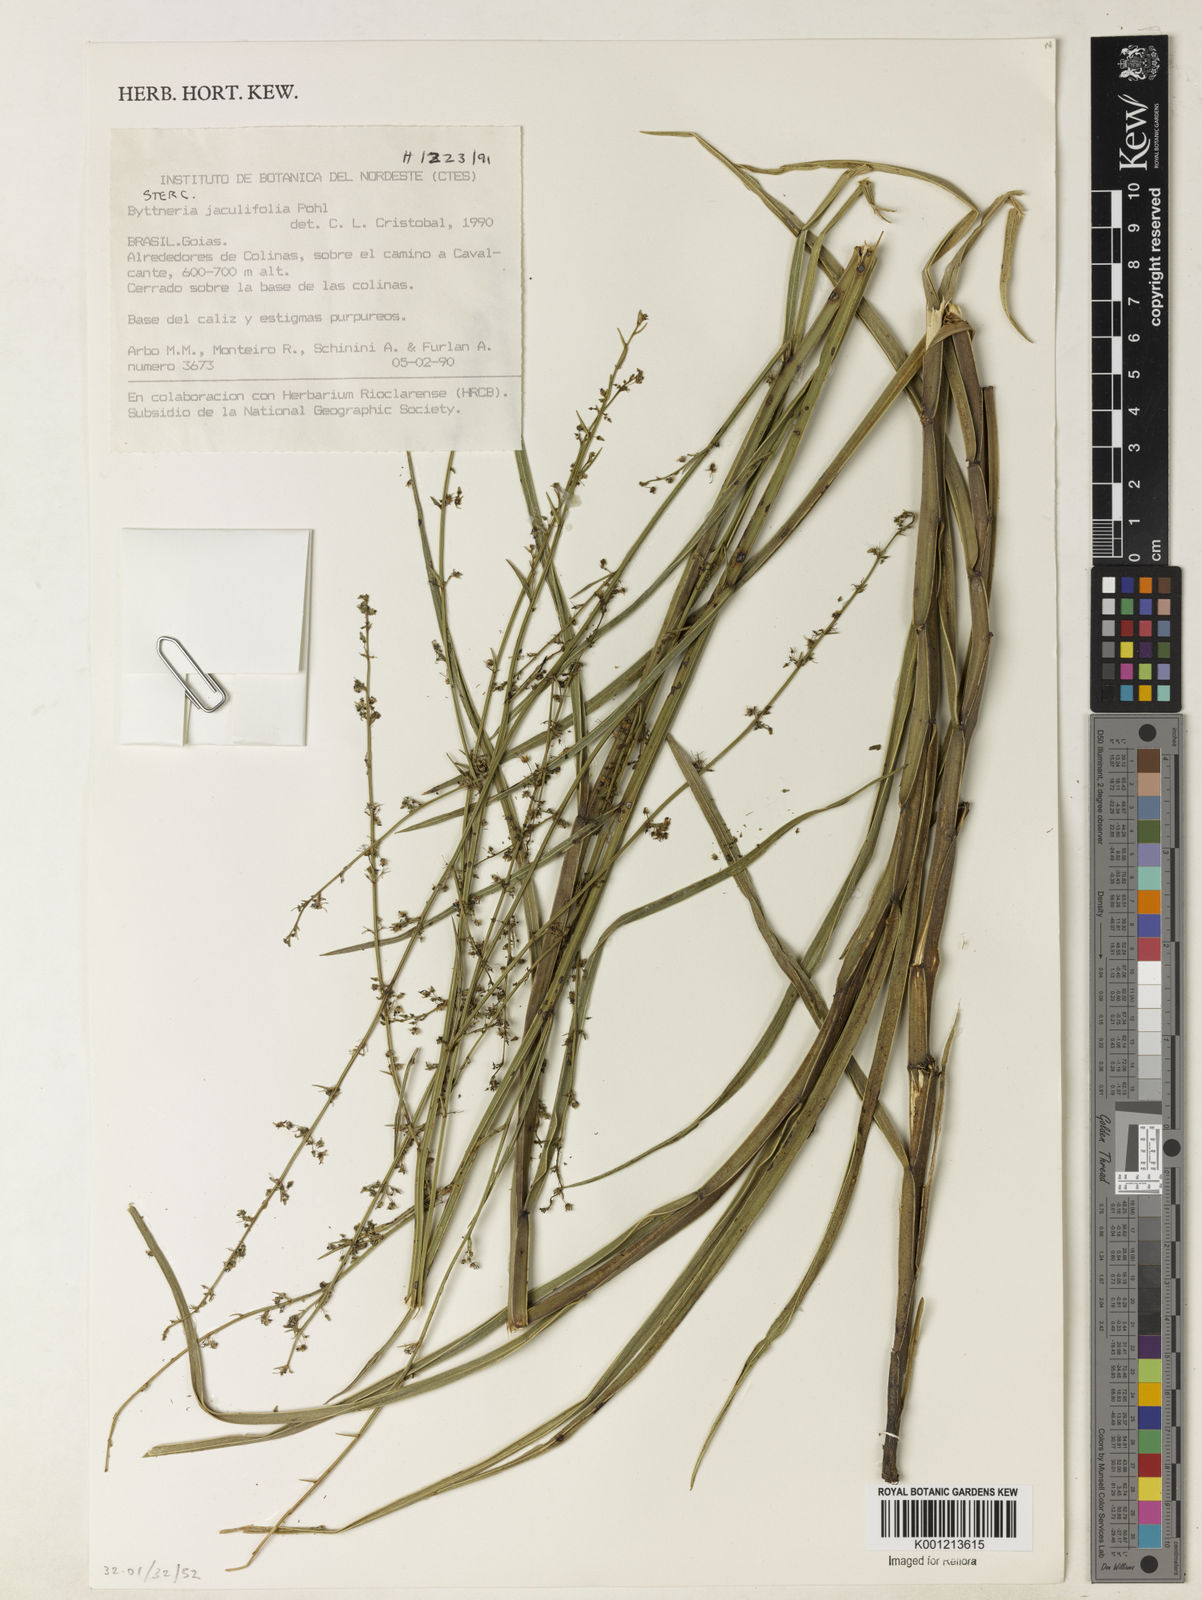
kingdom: Plantae
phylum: Tracheophyta
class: Magnoliopsida
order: Malvales
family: Malvaceae
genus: Byttneria
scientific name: Byttneria jaculifolia
